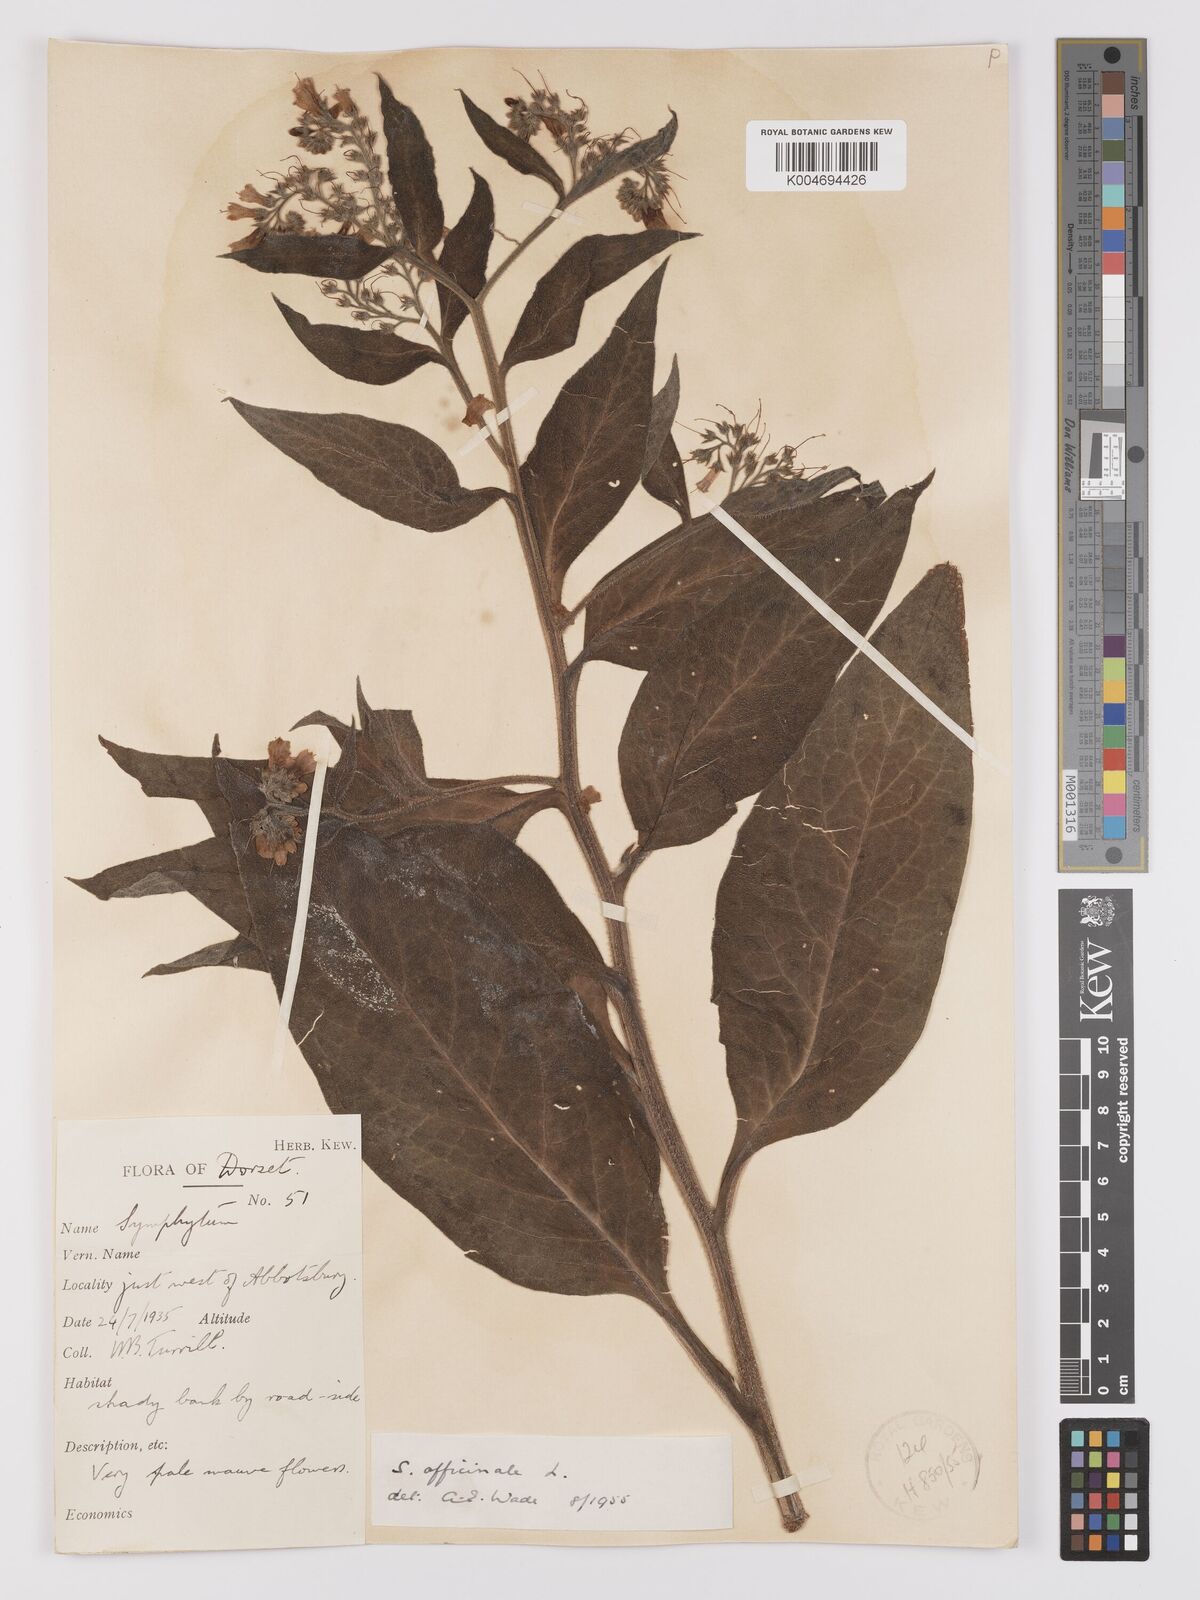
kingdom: Plantae
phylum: Tracheophyta
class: Magnoliopsida
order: Boraginales
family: Boraginaceae
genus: Symphytum
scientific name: Symphytum officinale
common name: Common comfrey
